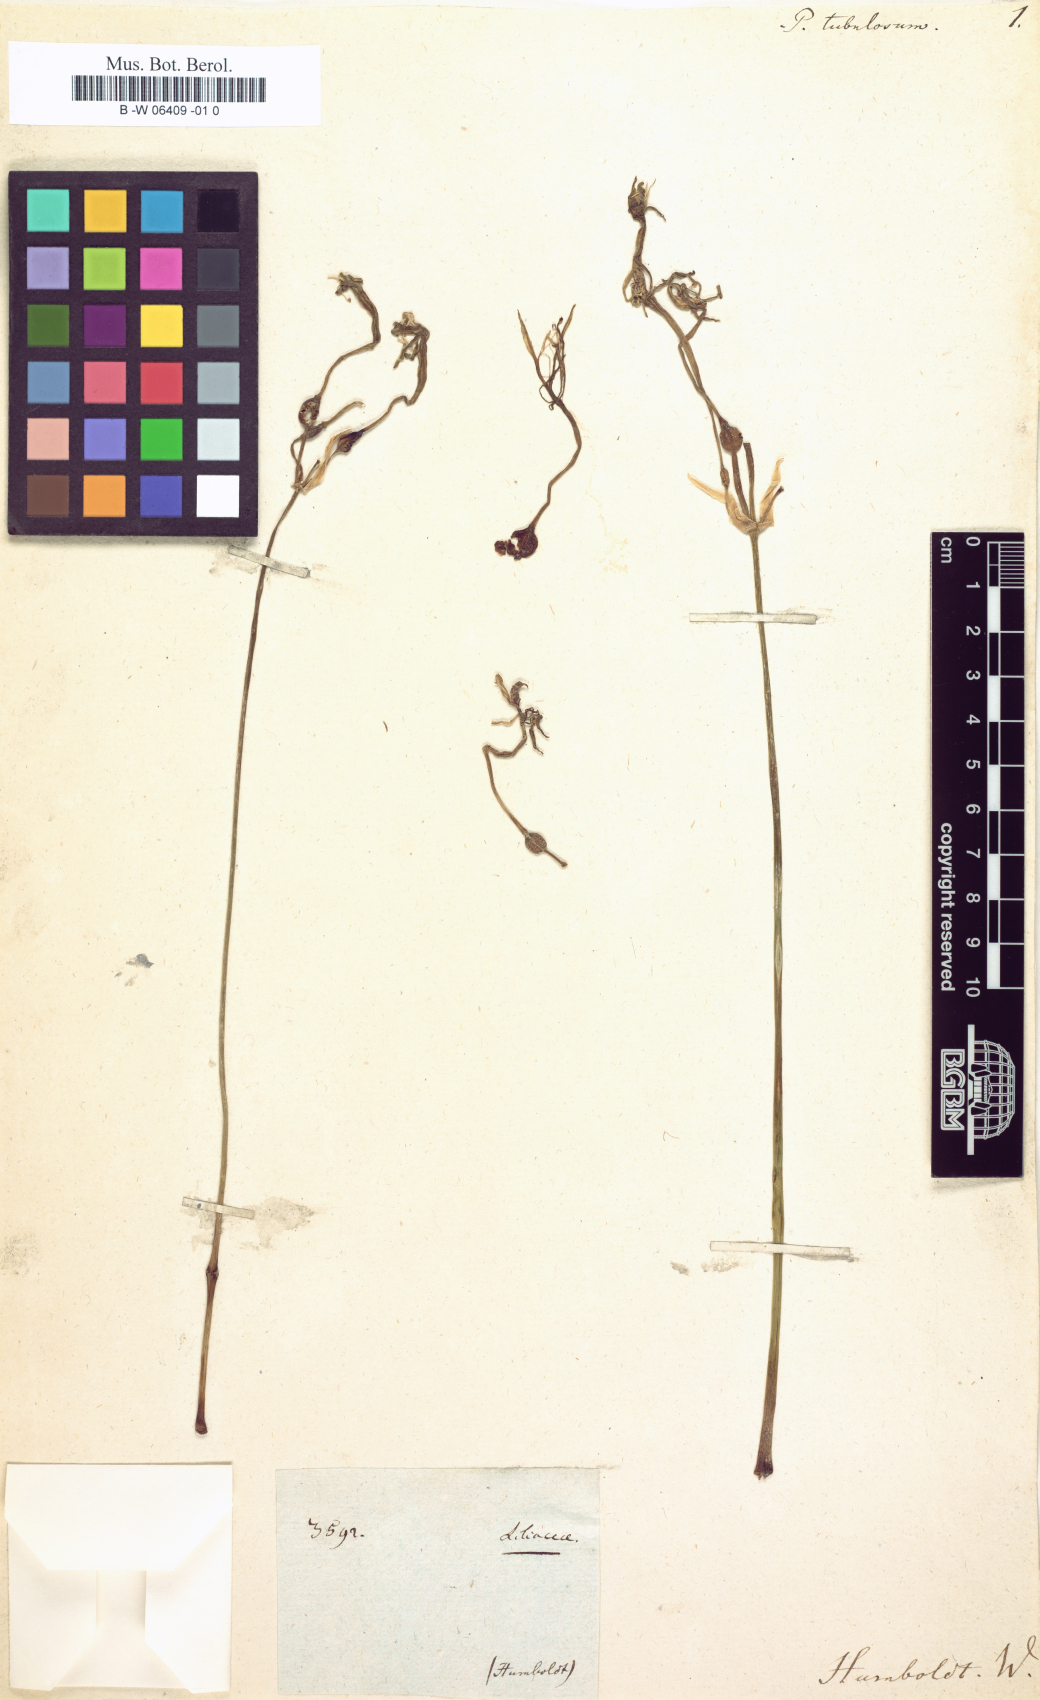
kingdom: Plantae
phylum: Tracheophyta
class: Liliopsida
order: Asparagales
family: Amaryllidaceae
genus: Pancratium
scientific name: Pancratium tubulosum
